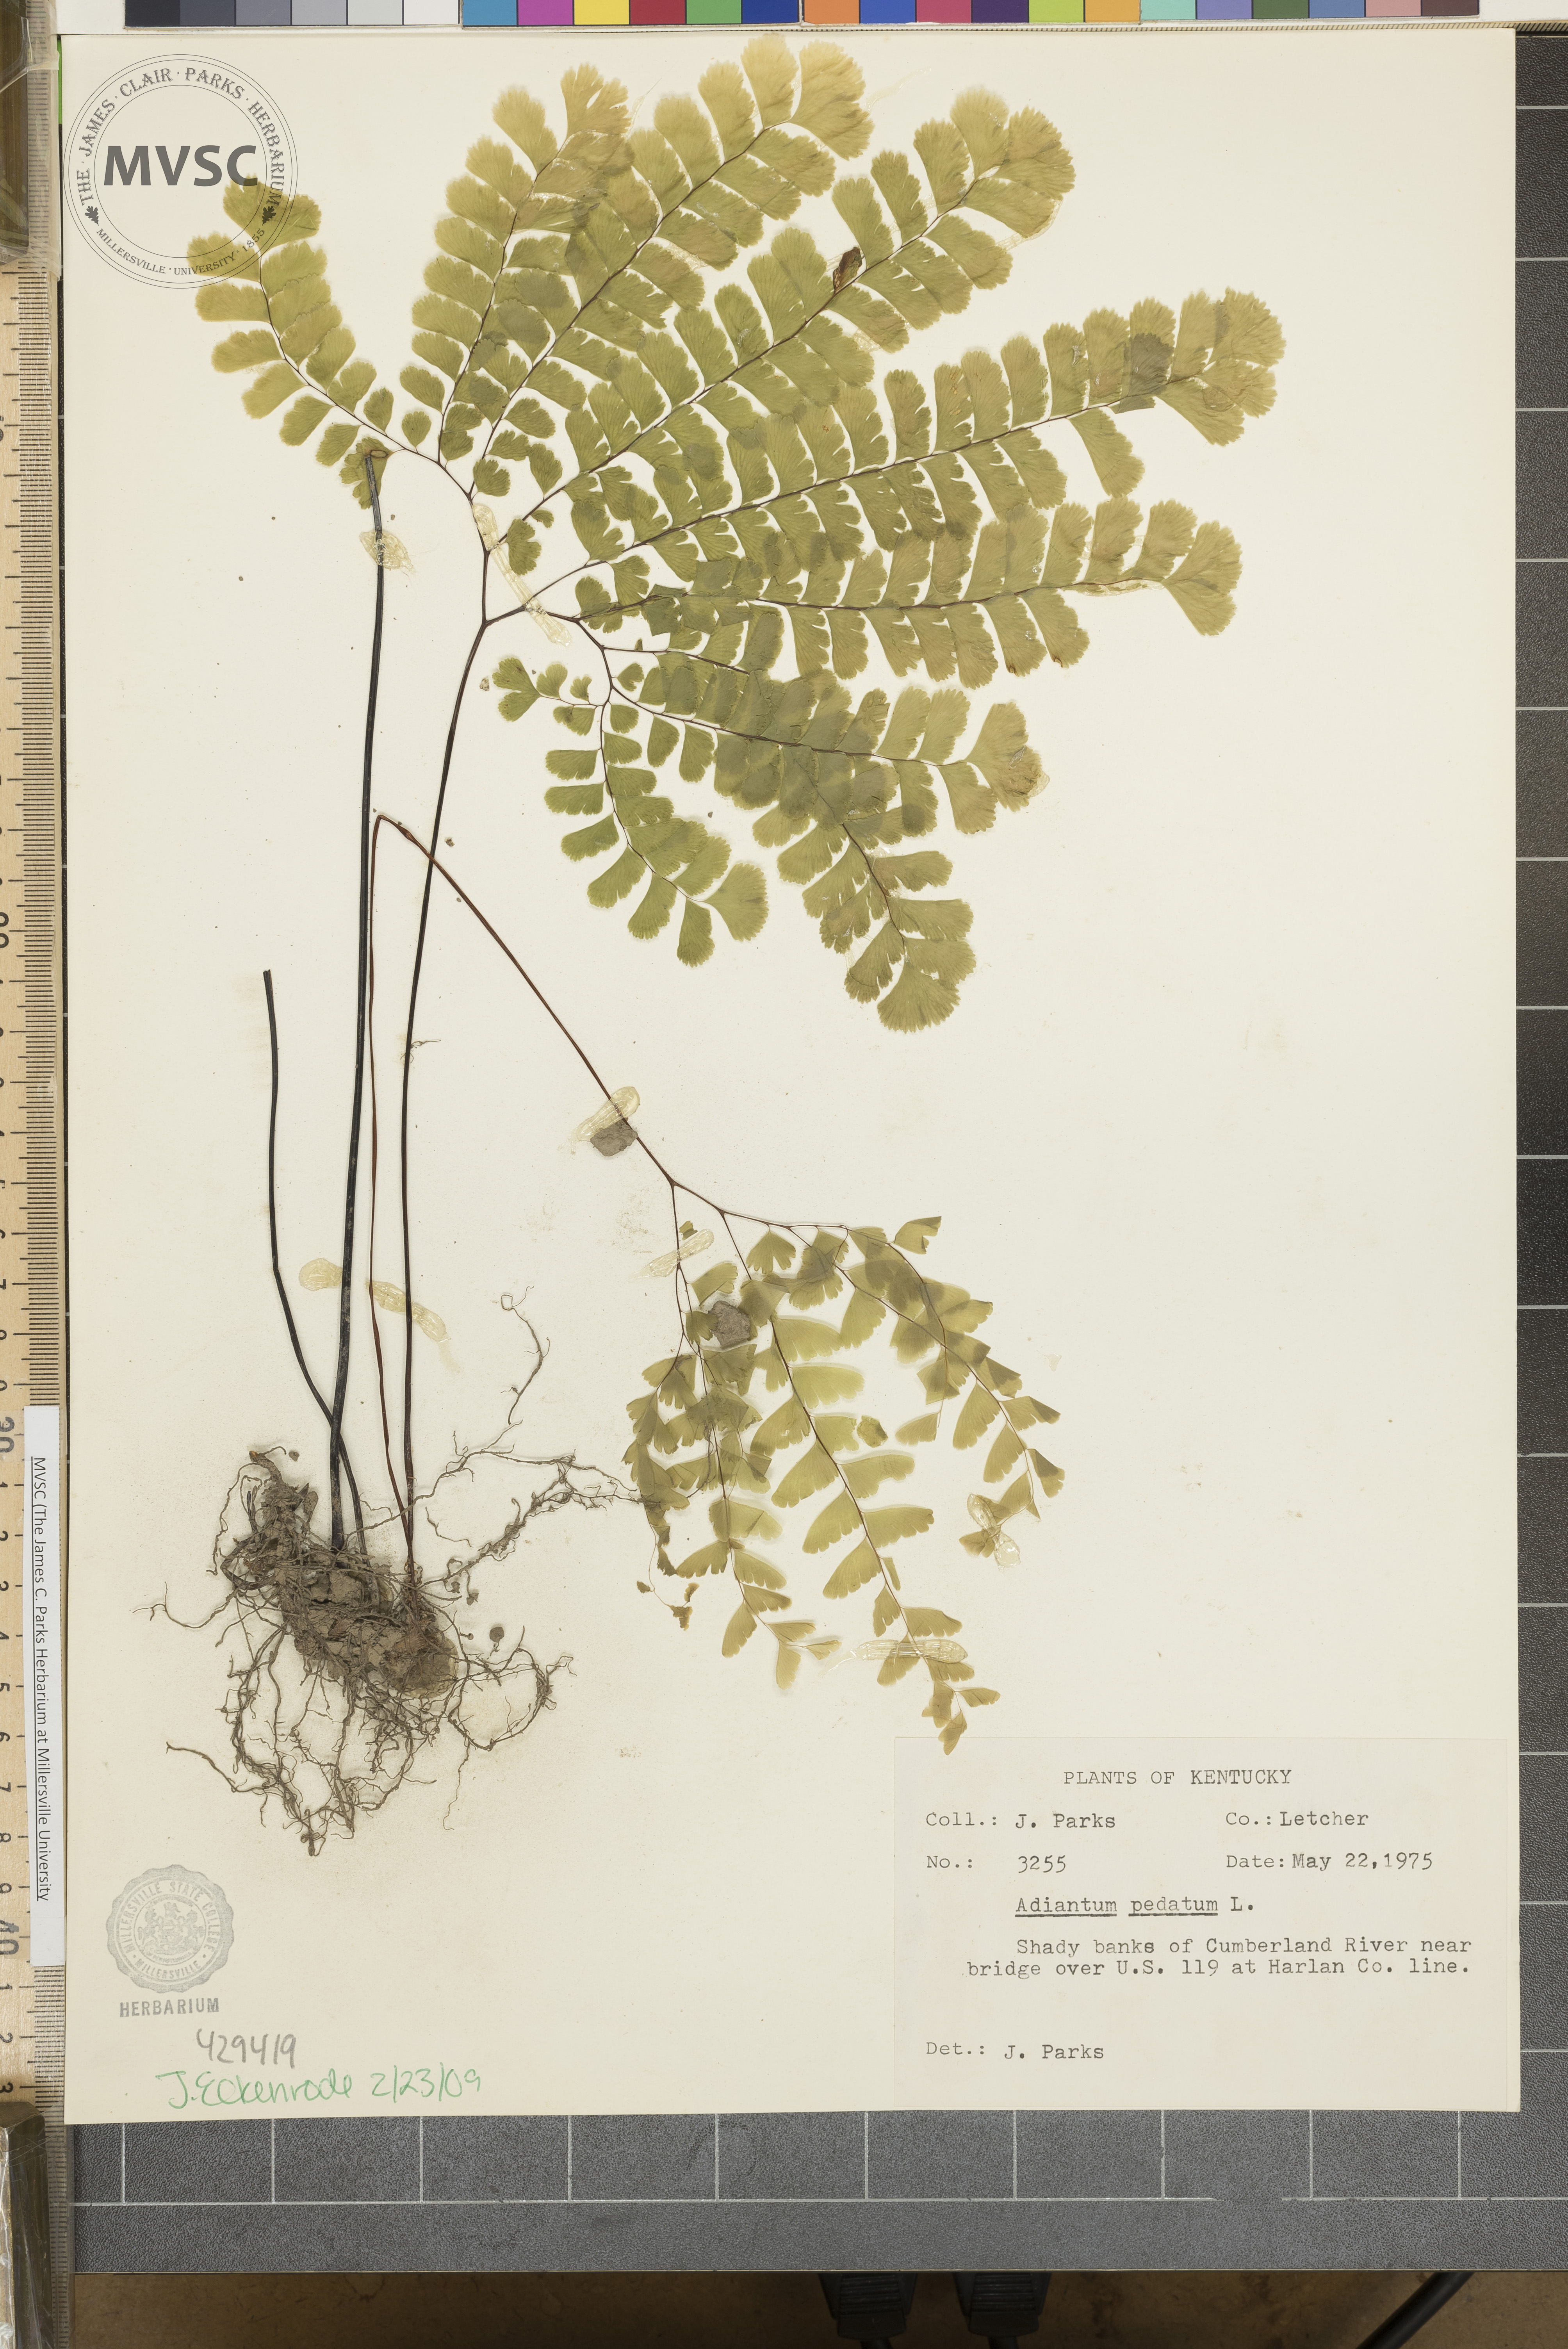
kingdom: Plantae
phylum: Tracheophyta
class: Polypodiopsida
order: Polypodiales
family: Pteridaceae
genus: Adiantum
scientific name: Adiantum pedatum
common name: Five-finger fern
